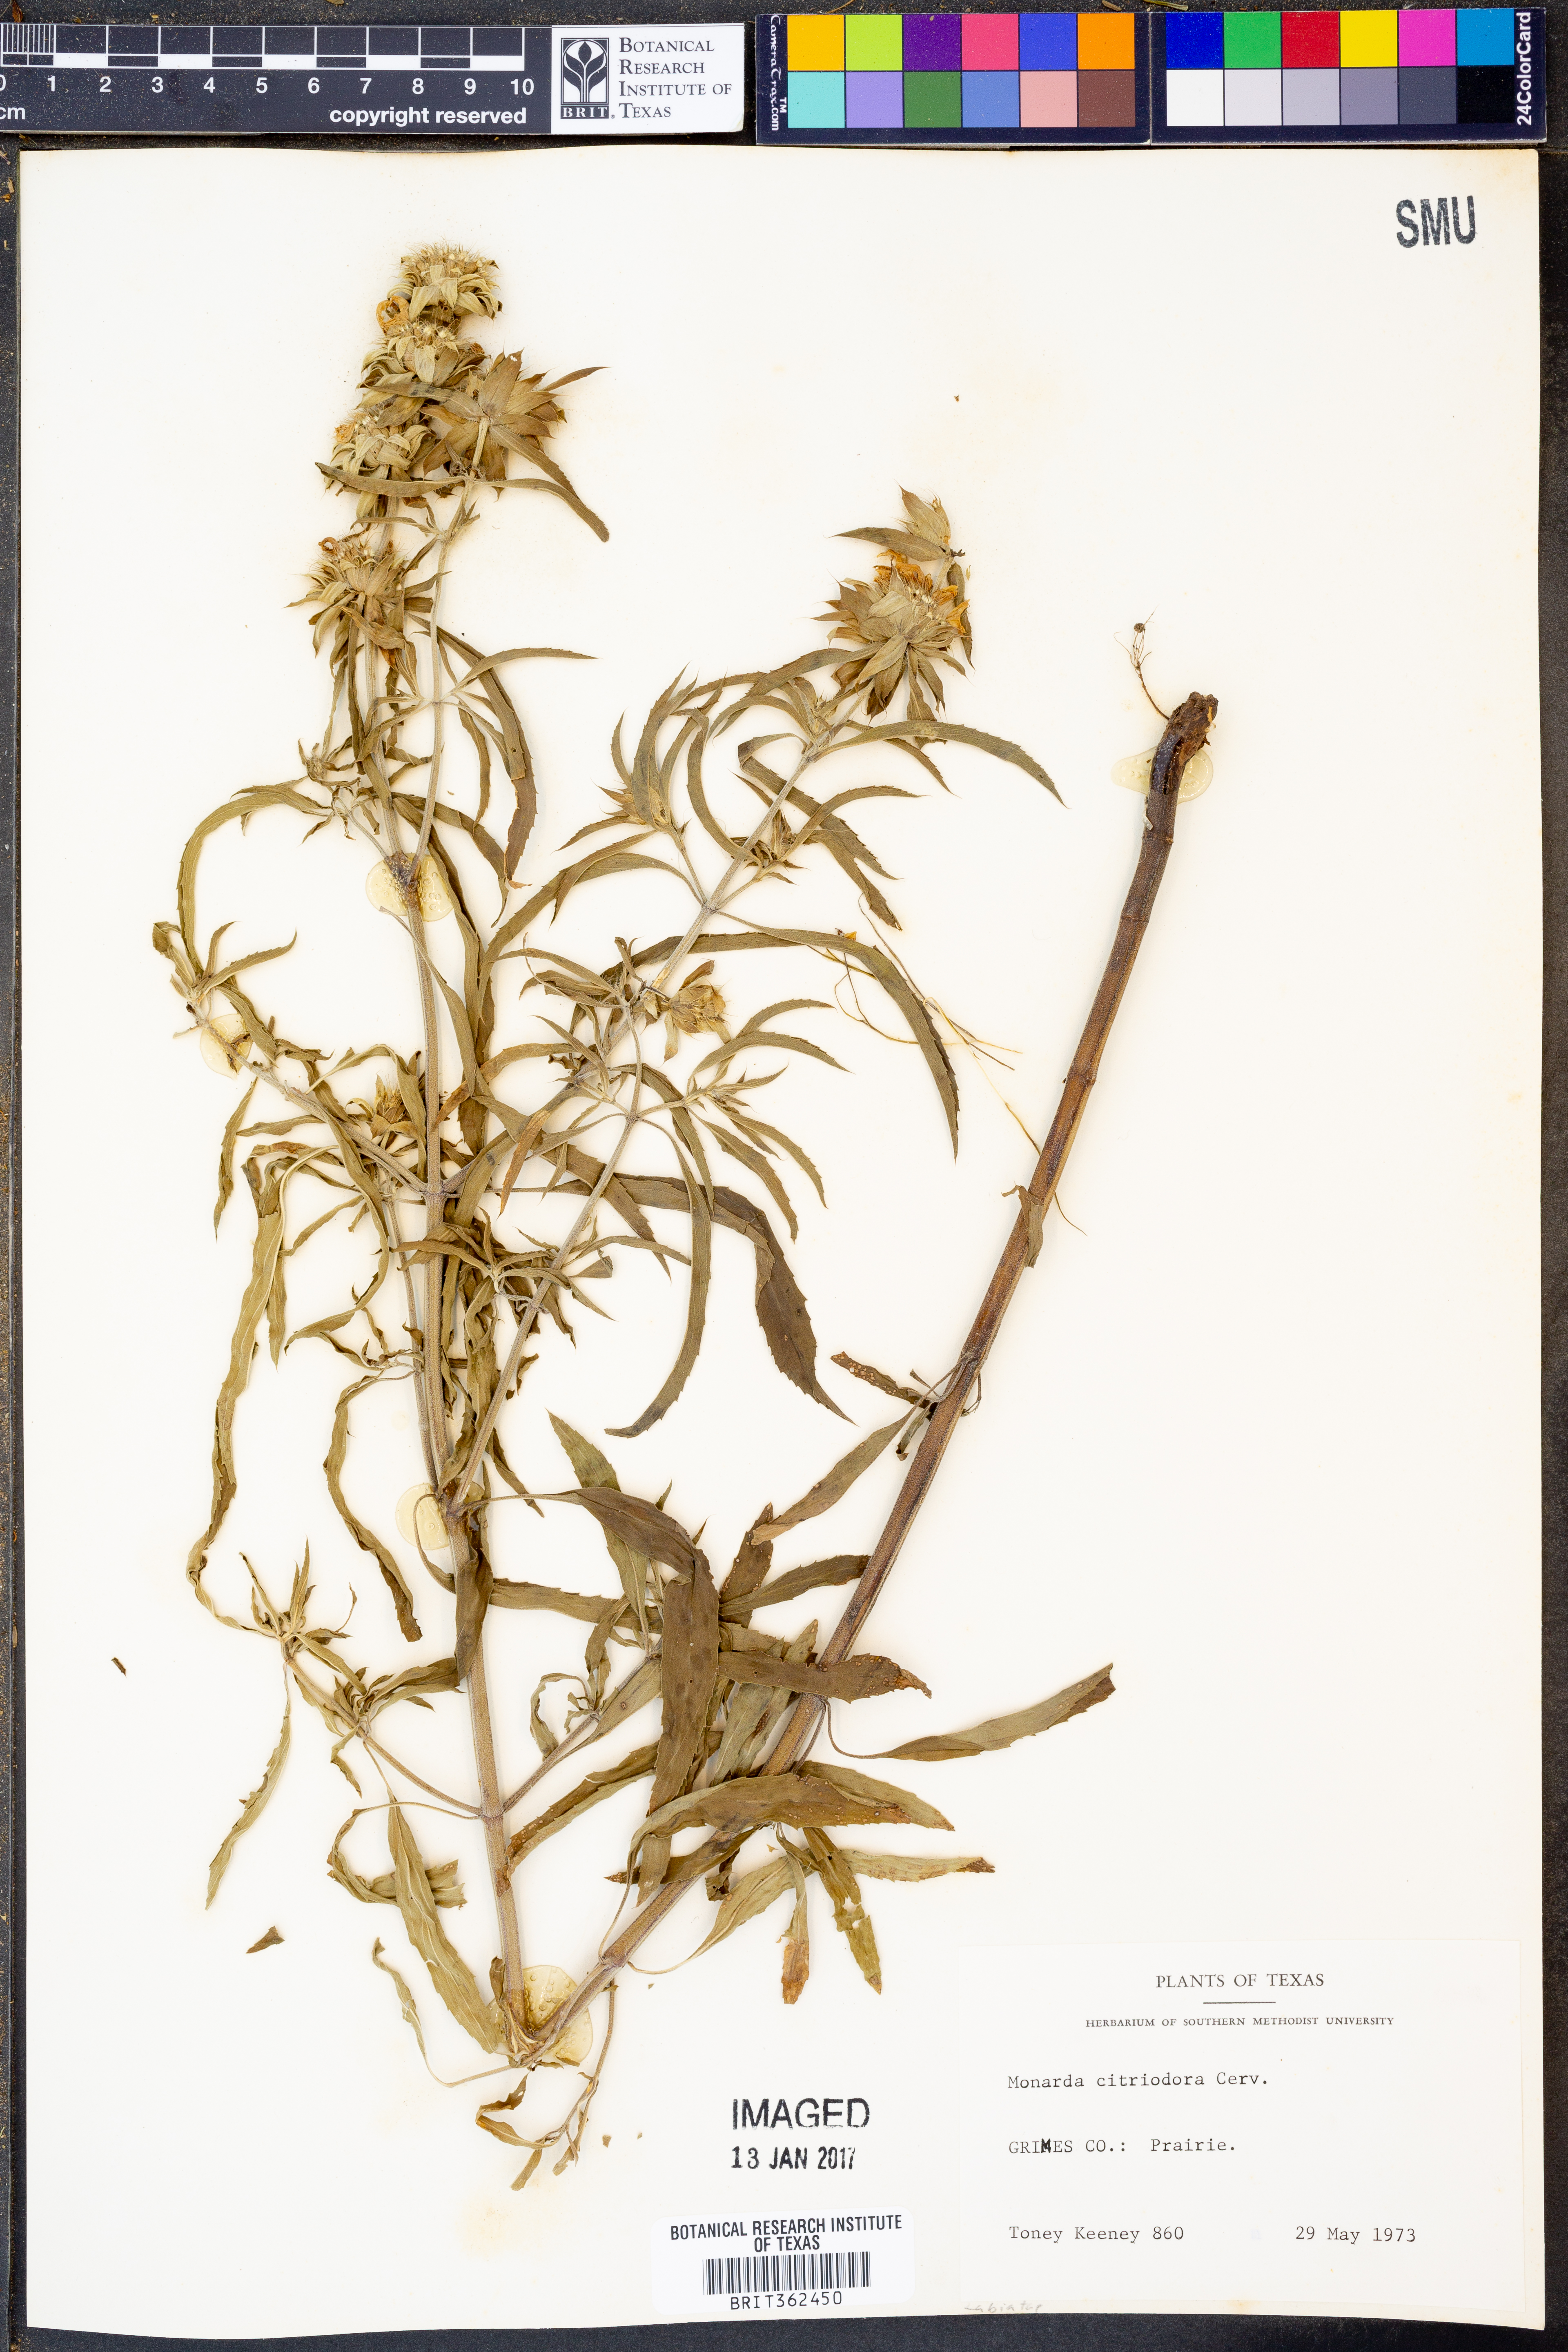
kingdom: Plantae
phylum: Tracheophyta
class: Magnoliopsida
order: Lamiales
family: Lamiaceae
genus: Monarda
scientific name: Monarda citriodora
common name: Lemon beebalm
